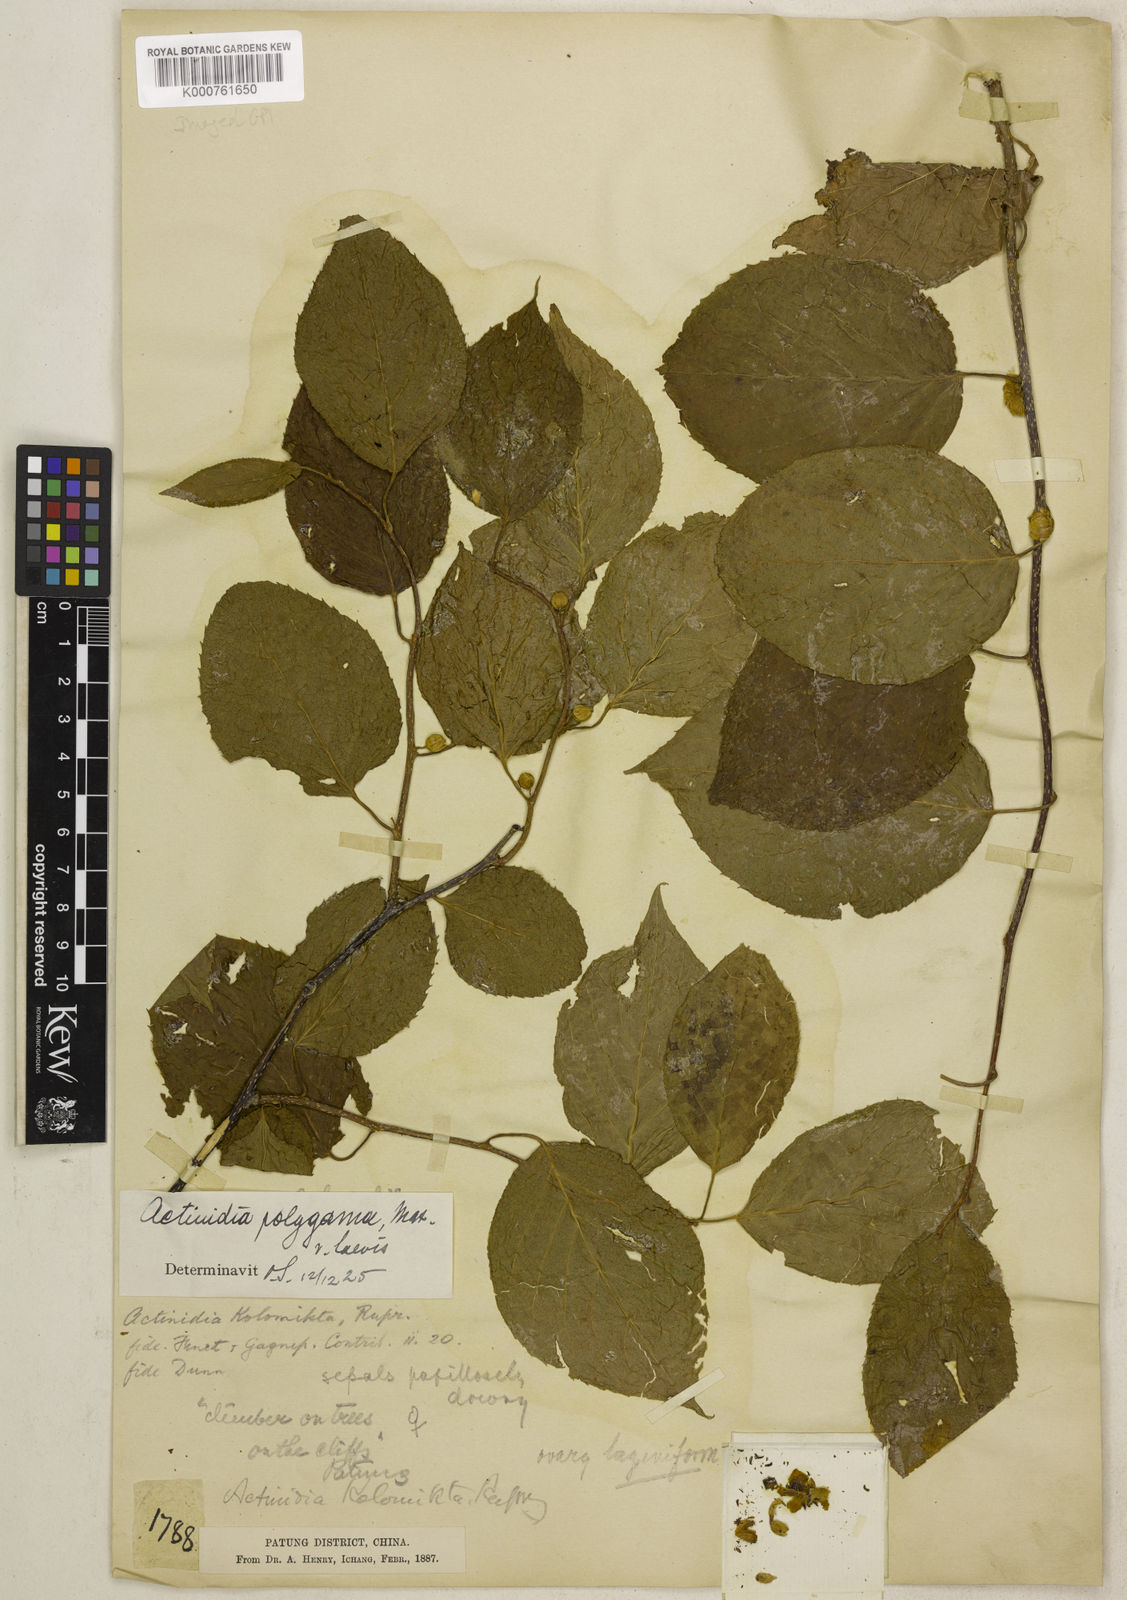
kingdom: Plantae
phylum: Tracheophyta
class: Magnoliopsida
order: Ericales
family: Actinidiaceae
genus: Actinidia
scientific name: Actinidia polygama
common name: Silver vine
